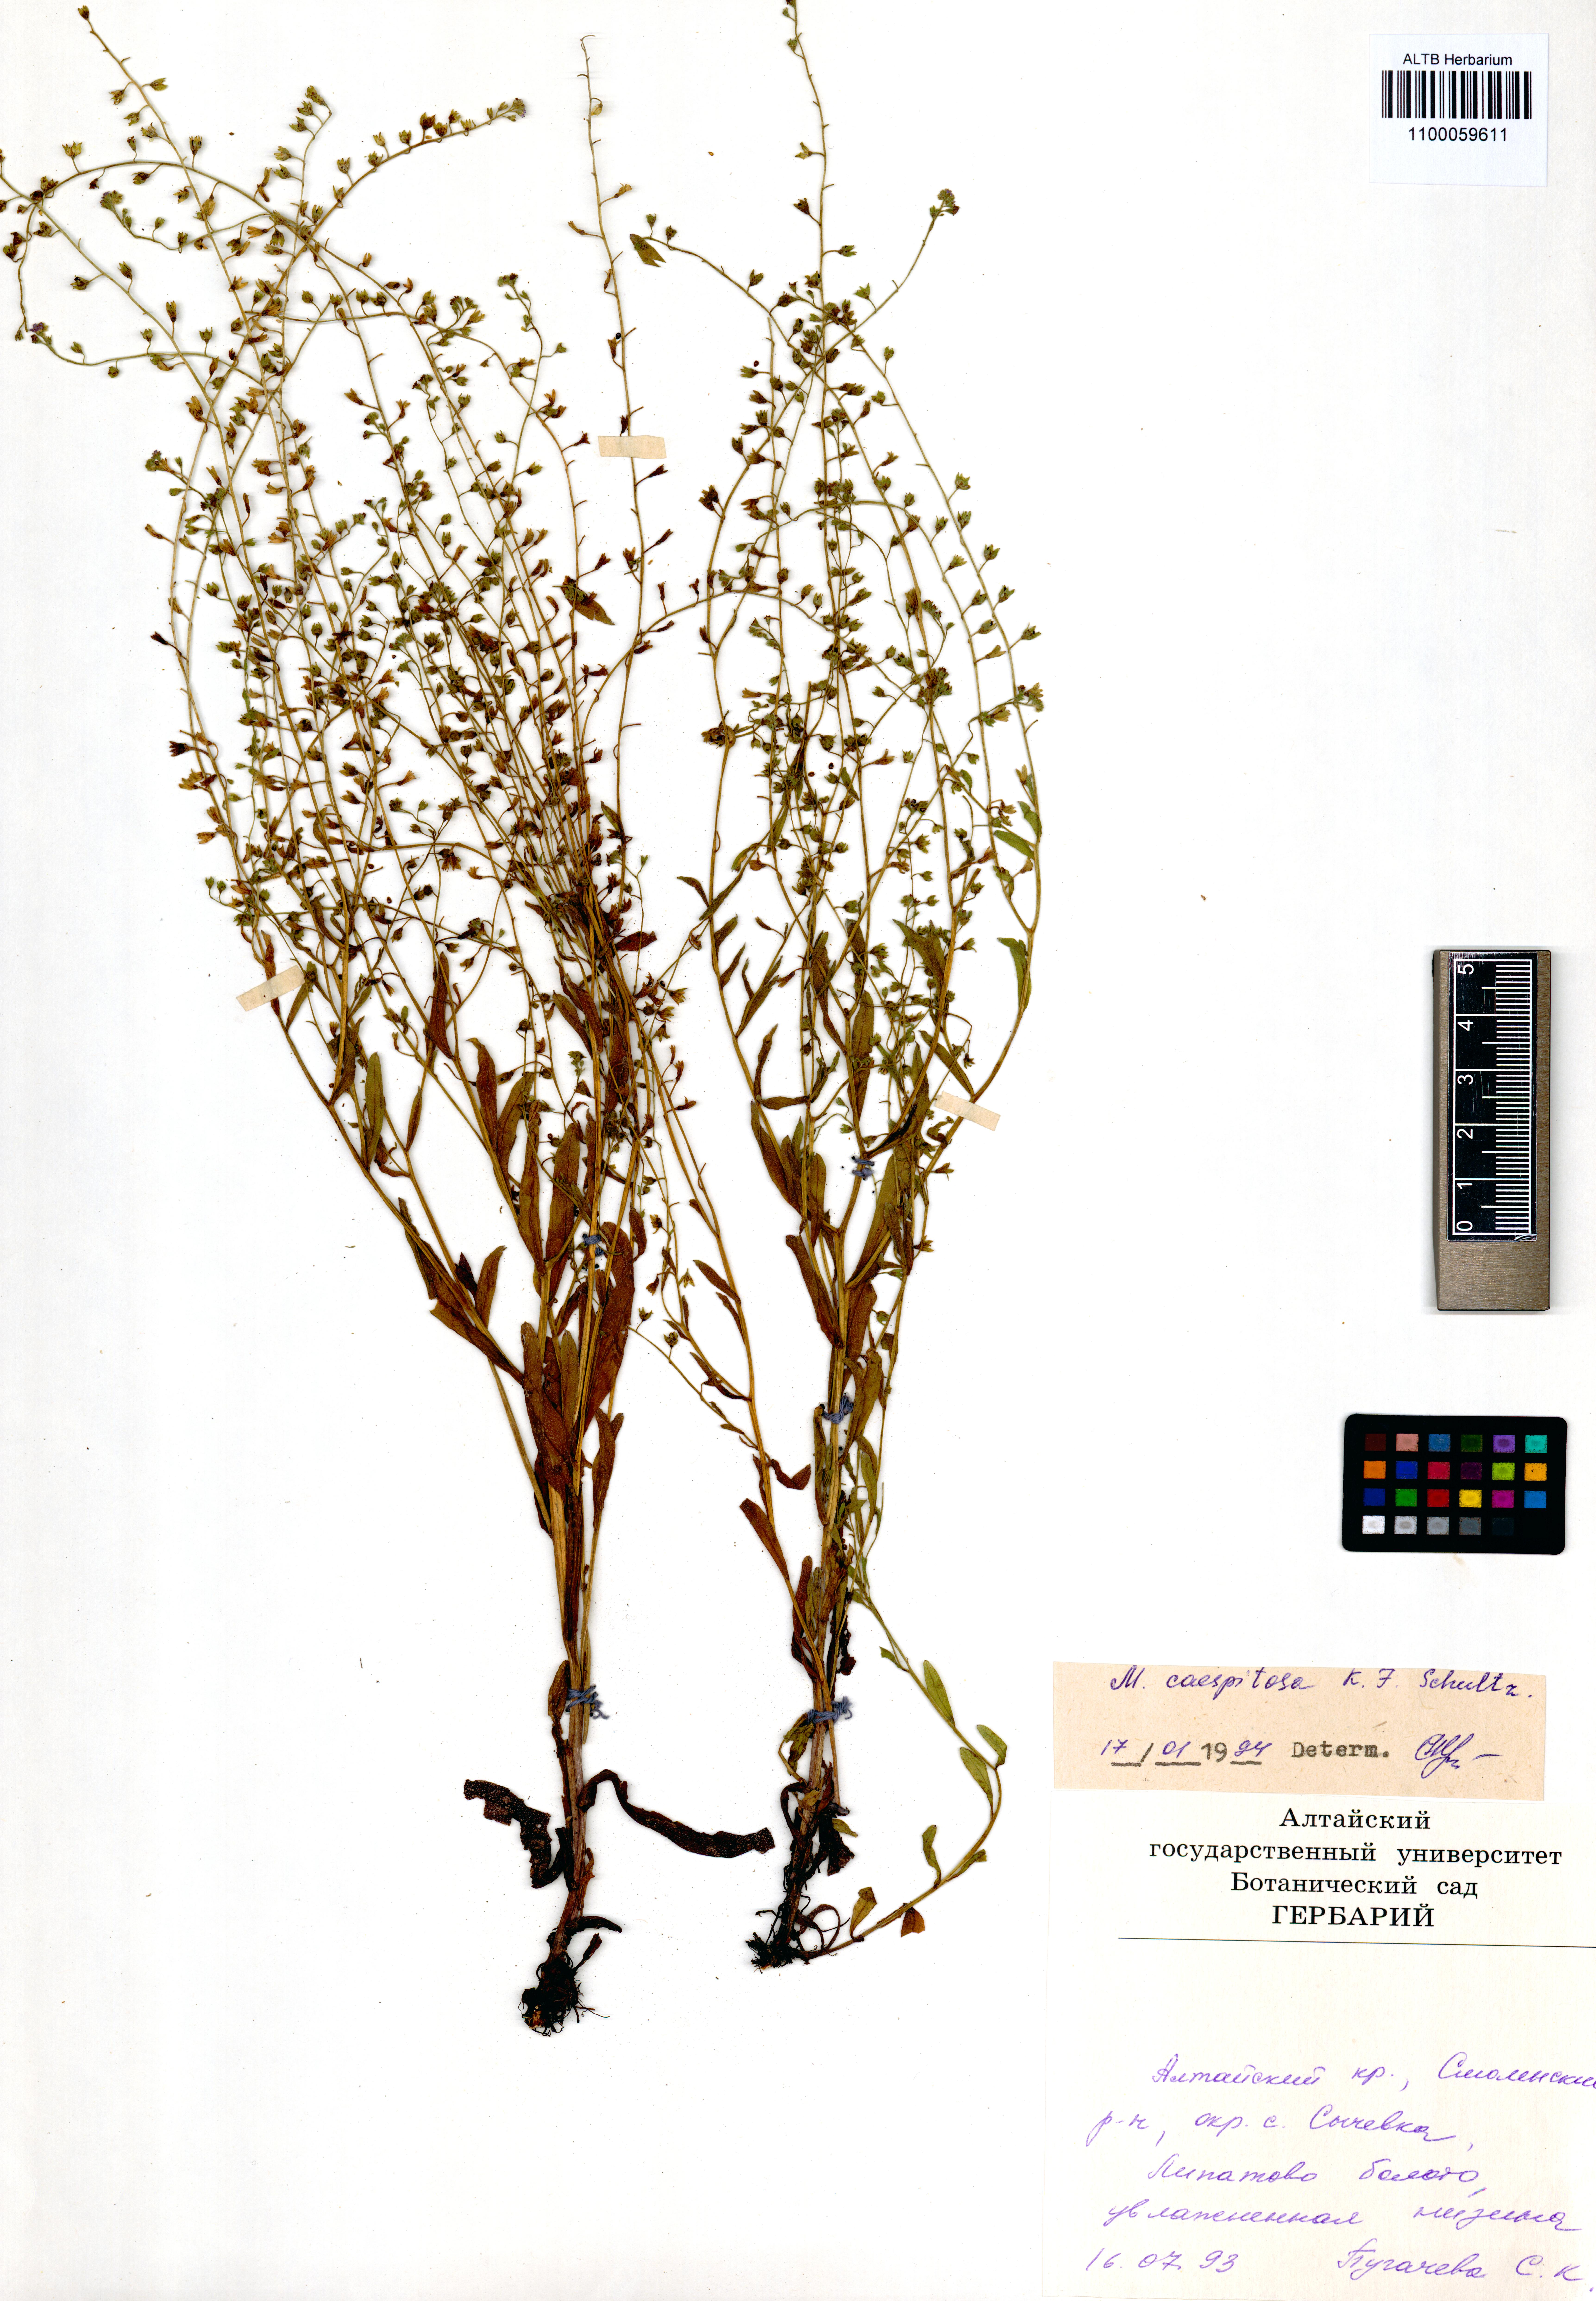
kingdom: Plantae
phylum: Tracheophyta
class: Magnoliopsida
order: Boraginales
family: Boraginaceae
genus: Myosotis
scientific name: Myosotis laxa
